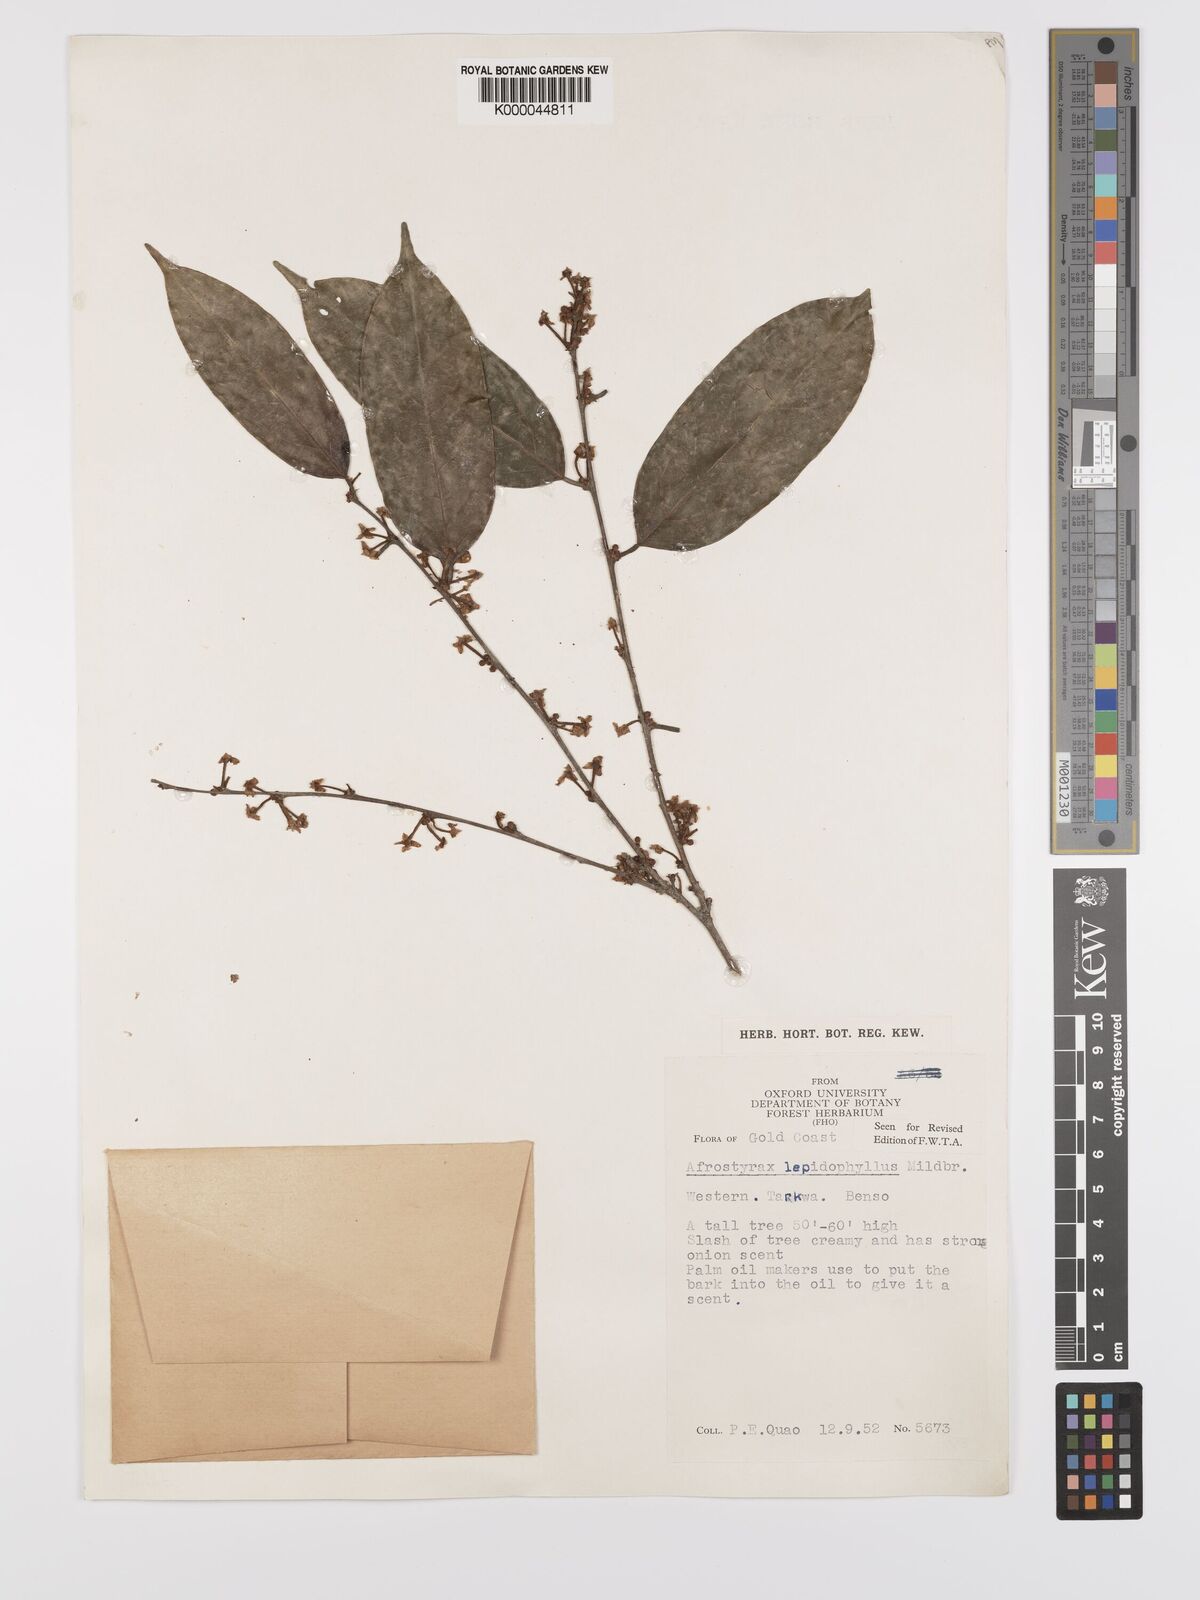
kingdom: Plantae
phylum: Tracheophyta
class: Magnoliopsida
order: Oxalidales
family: Huaceae
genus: Afrostyrax
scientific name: Afrostyrax lepidophyllus
